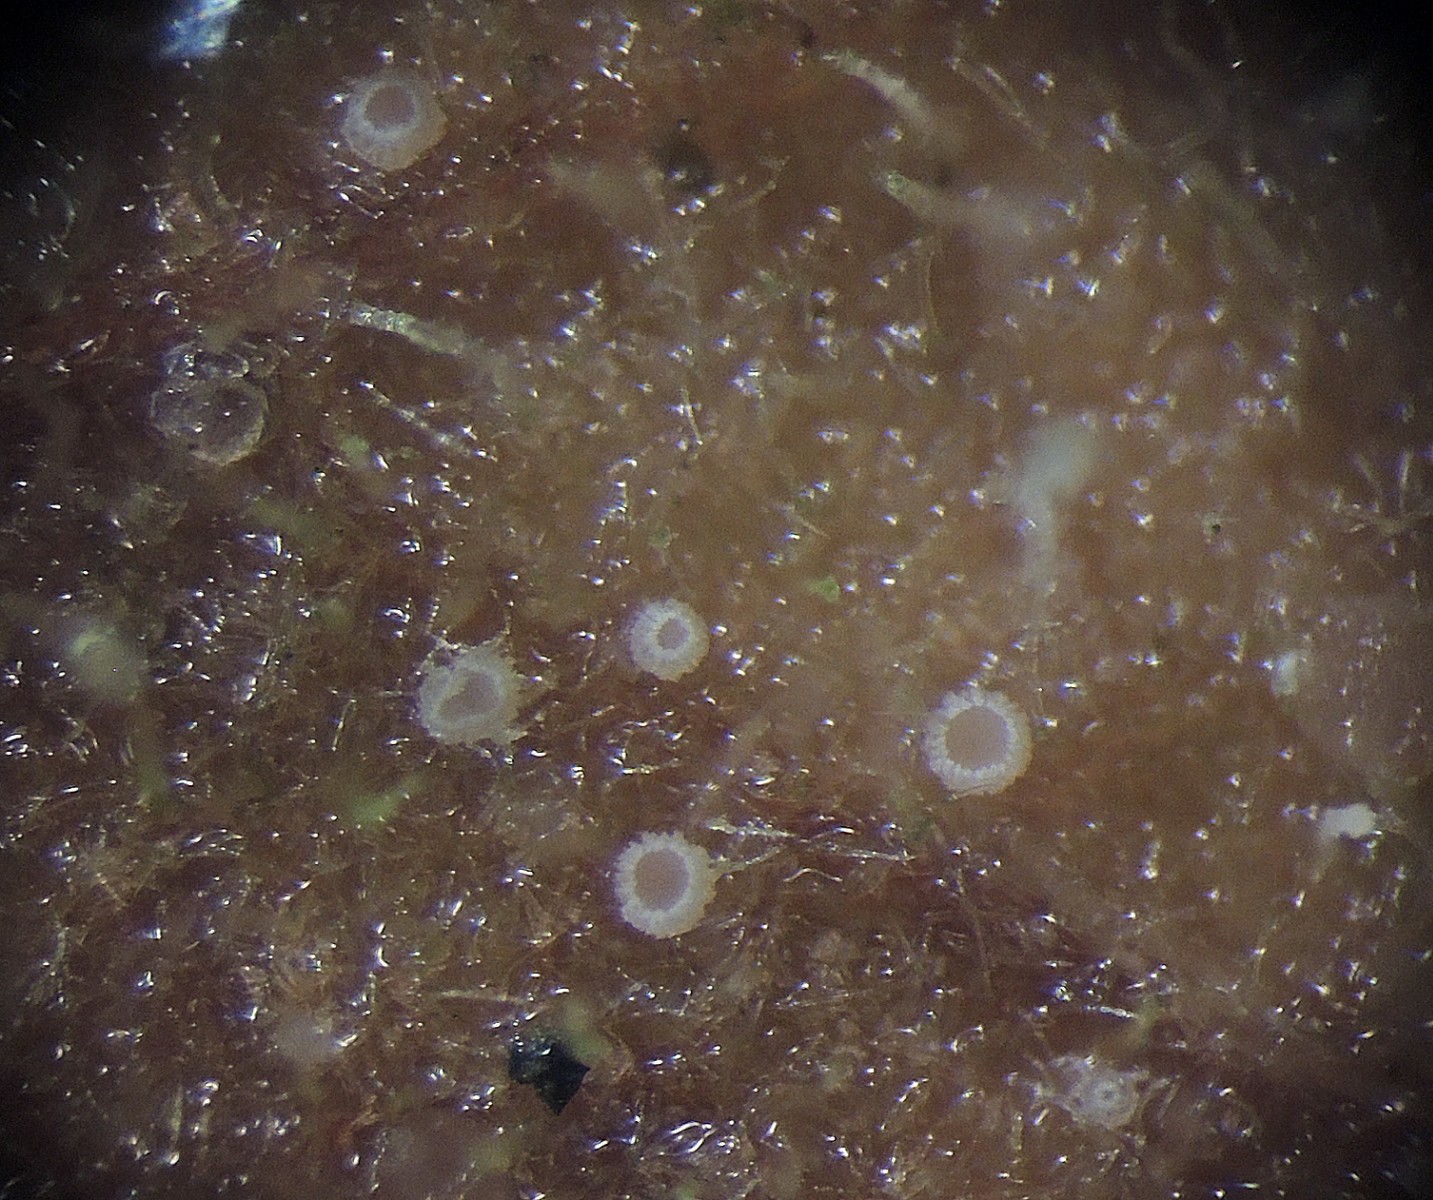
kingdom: Fungi
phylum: Ascomycota
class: Leotiomycetes
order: Helotiales
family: Hyphodiscaceae
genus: Fuscolachnum
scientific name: Fuscolachnum misellum
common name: brombærblad-sirskive
